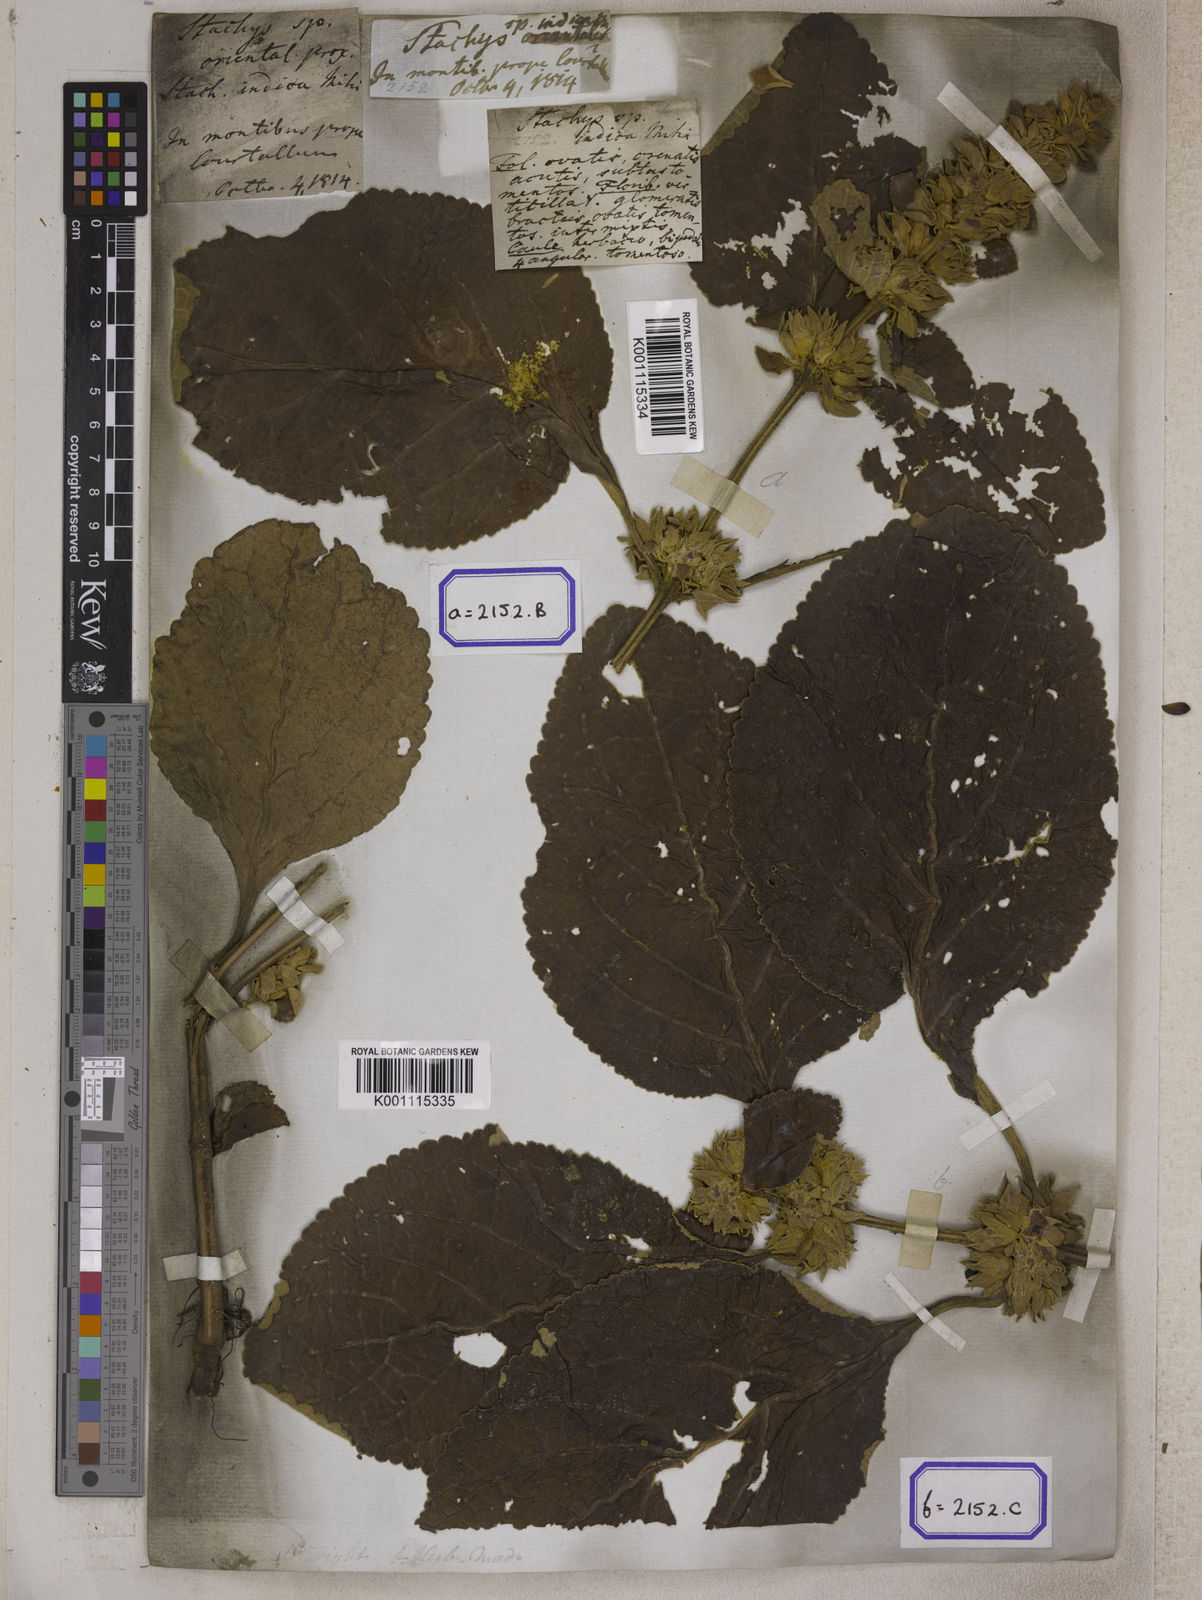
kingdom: Plantae
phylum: Tracheophyta
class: Magnoliopsida
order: Lamiales
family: Lamiaceae
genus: Gomphostemma
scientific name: Gomphostemma
